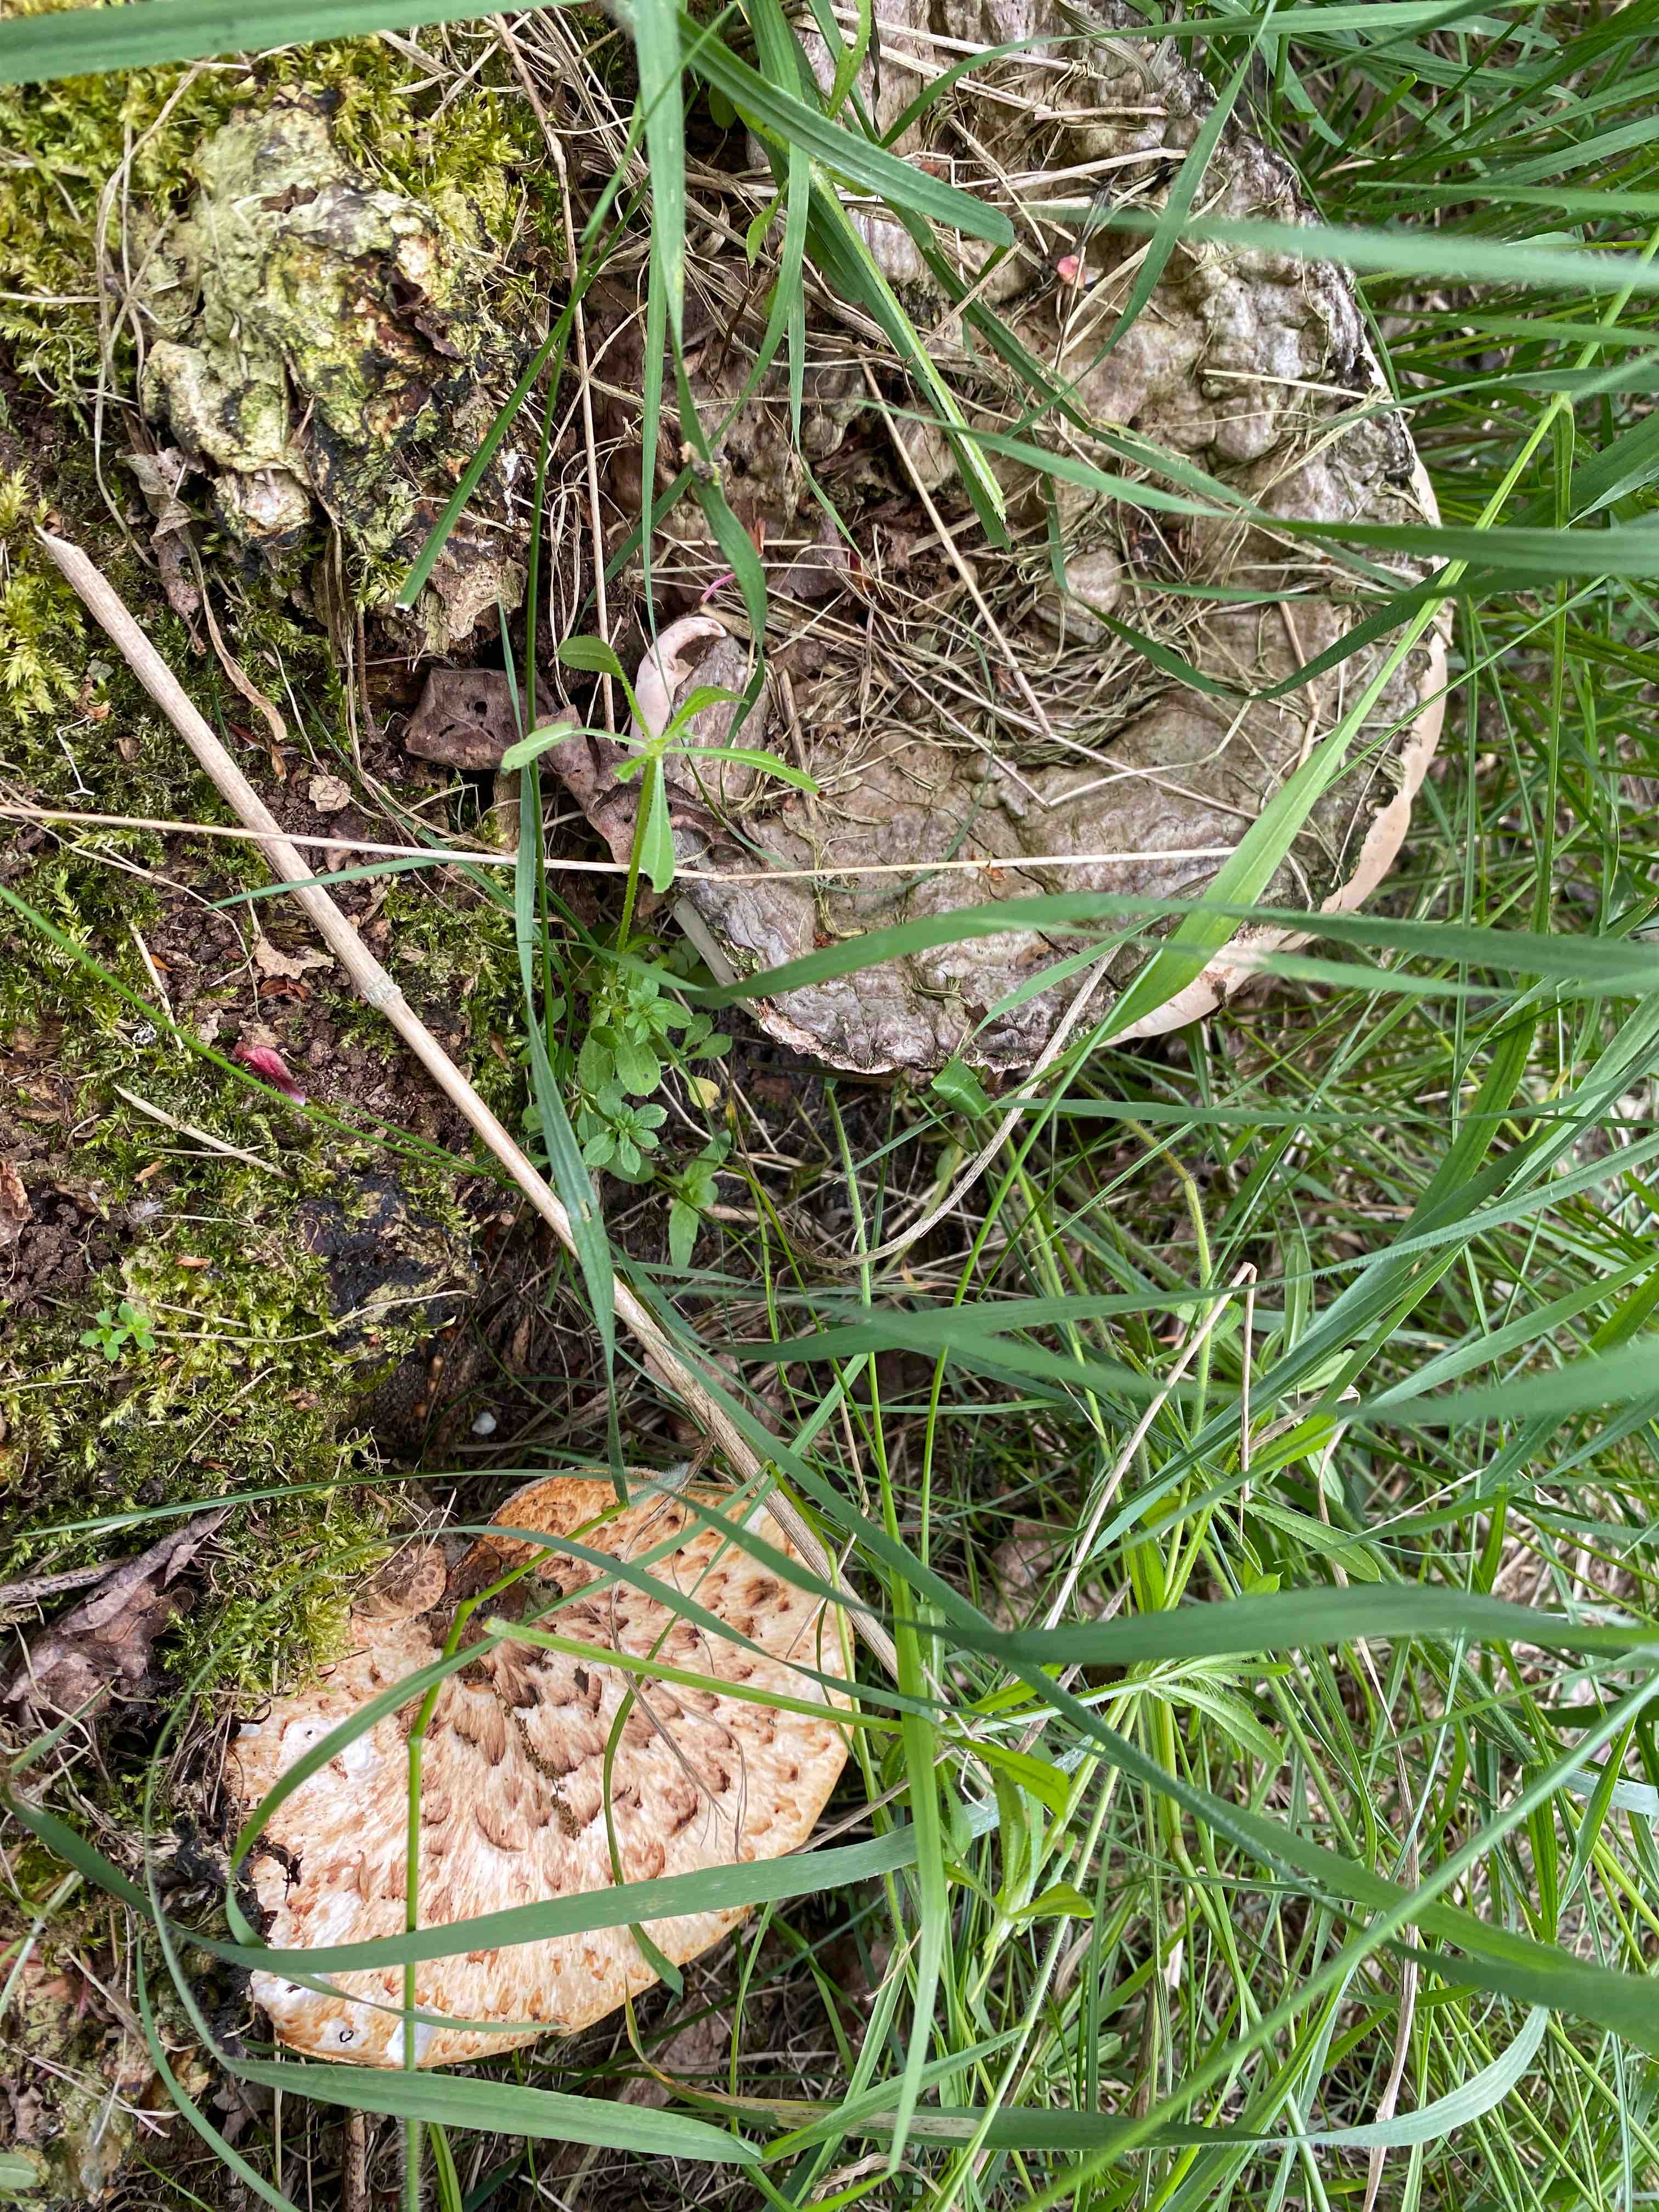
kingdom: Fungi
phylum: Basidiomycota
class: Agaricomycetes
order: Polyporales
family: Polyporaceae
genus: Cerioporus
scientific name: Cerioporus squamosus
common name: skællet stilkporesvamp
